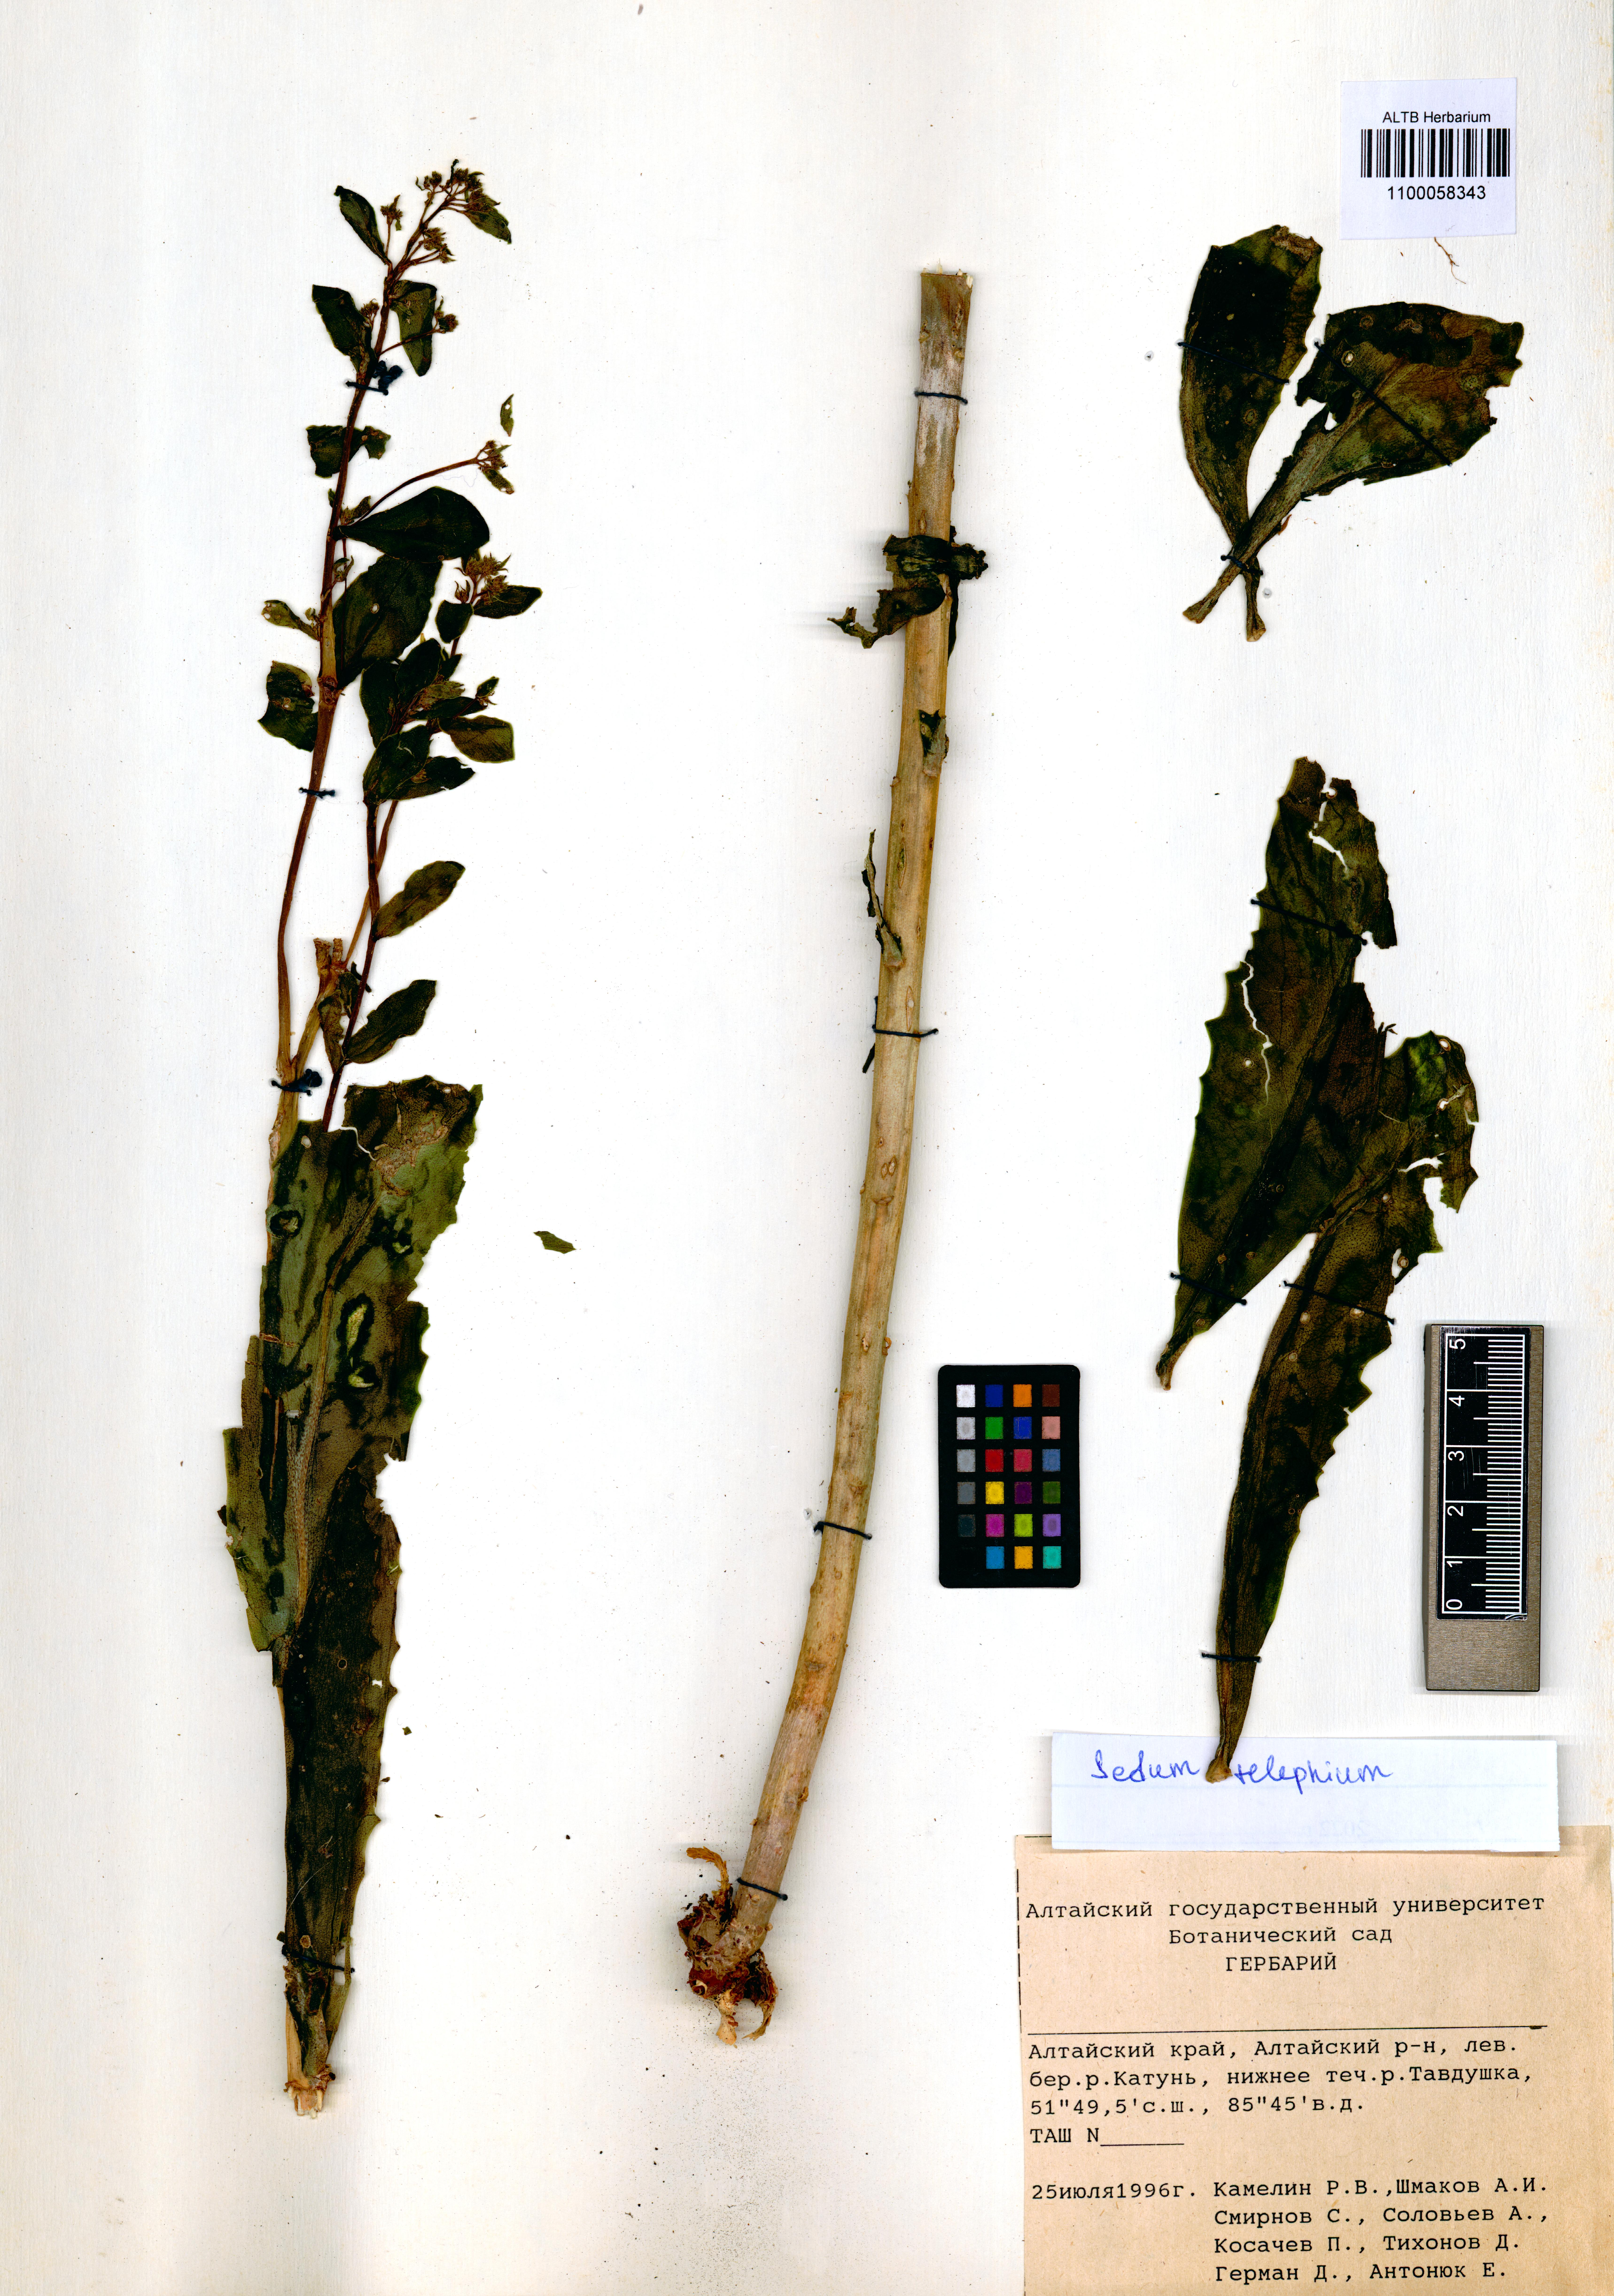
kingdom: Plantae
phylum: Tracheophyta
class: Magnoliopsida
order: Saxifragales
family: Crassulaceae
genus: Hylotelephium
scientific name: Hylotelephium telephium
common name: Live-forever
